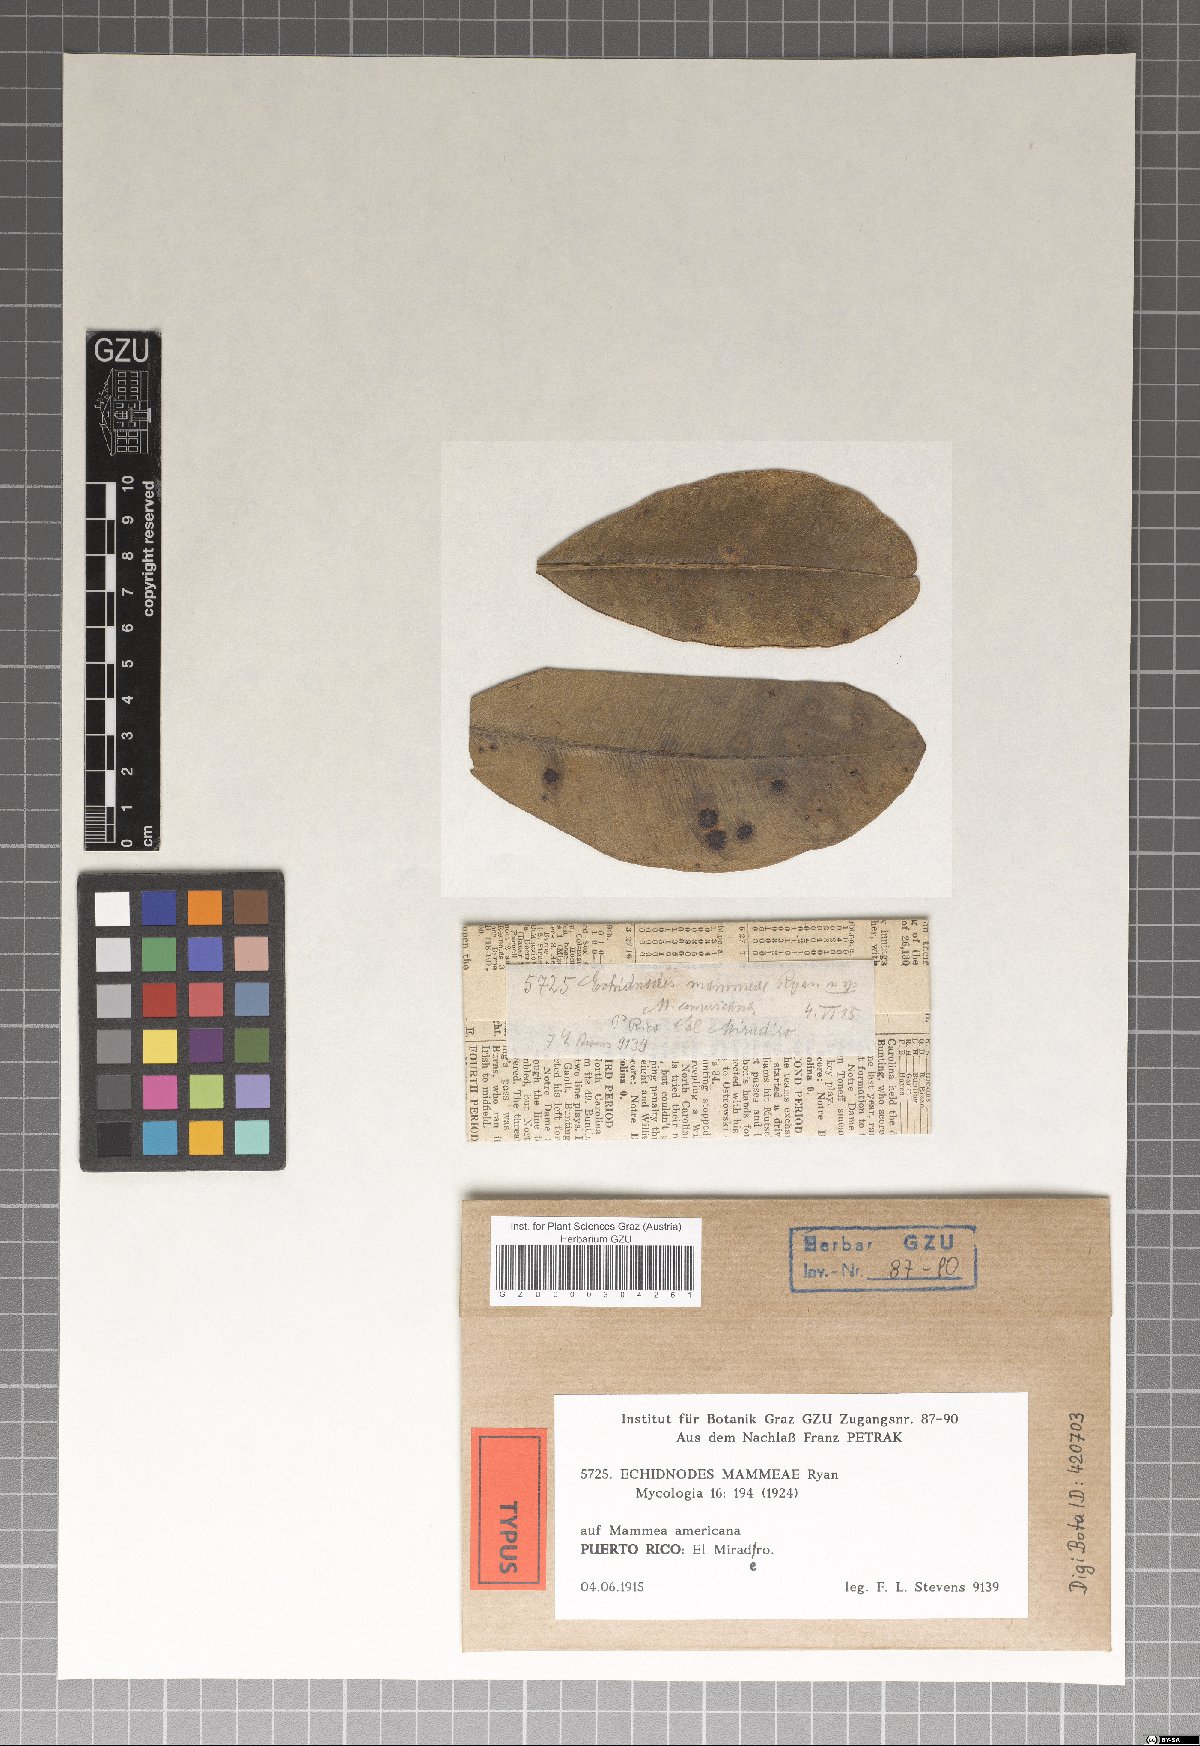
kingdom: Fungi
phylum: Ascomycota
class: Dothideomycetes
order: Asterinales
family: Asterinaceae
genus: Echidnodes
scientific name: Echidnodes mammeae
